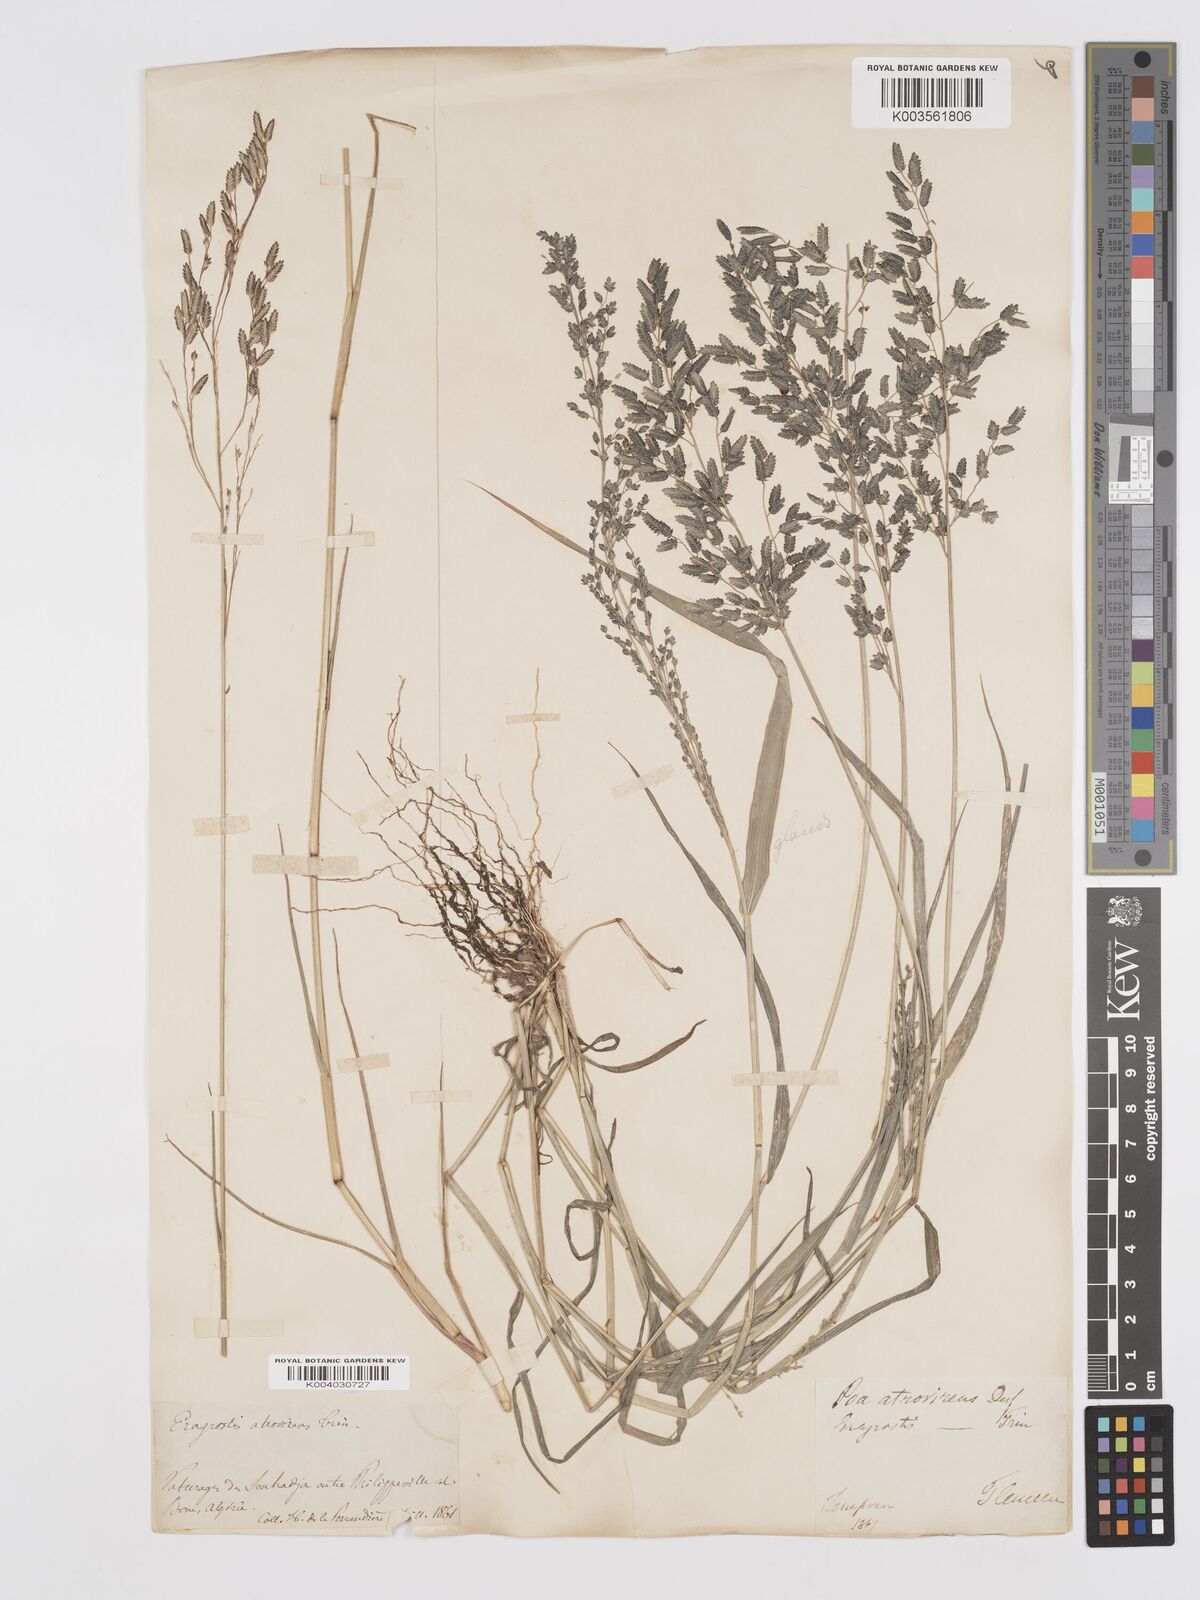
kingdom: Plantae
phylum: Tracheophyta
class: Liliopsida
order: Poales
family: Poaceae
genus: Eragrostis
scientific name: Eragrostis cilianensis
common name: Stinkgrass
